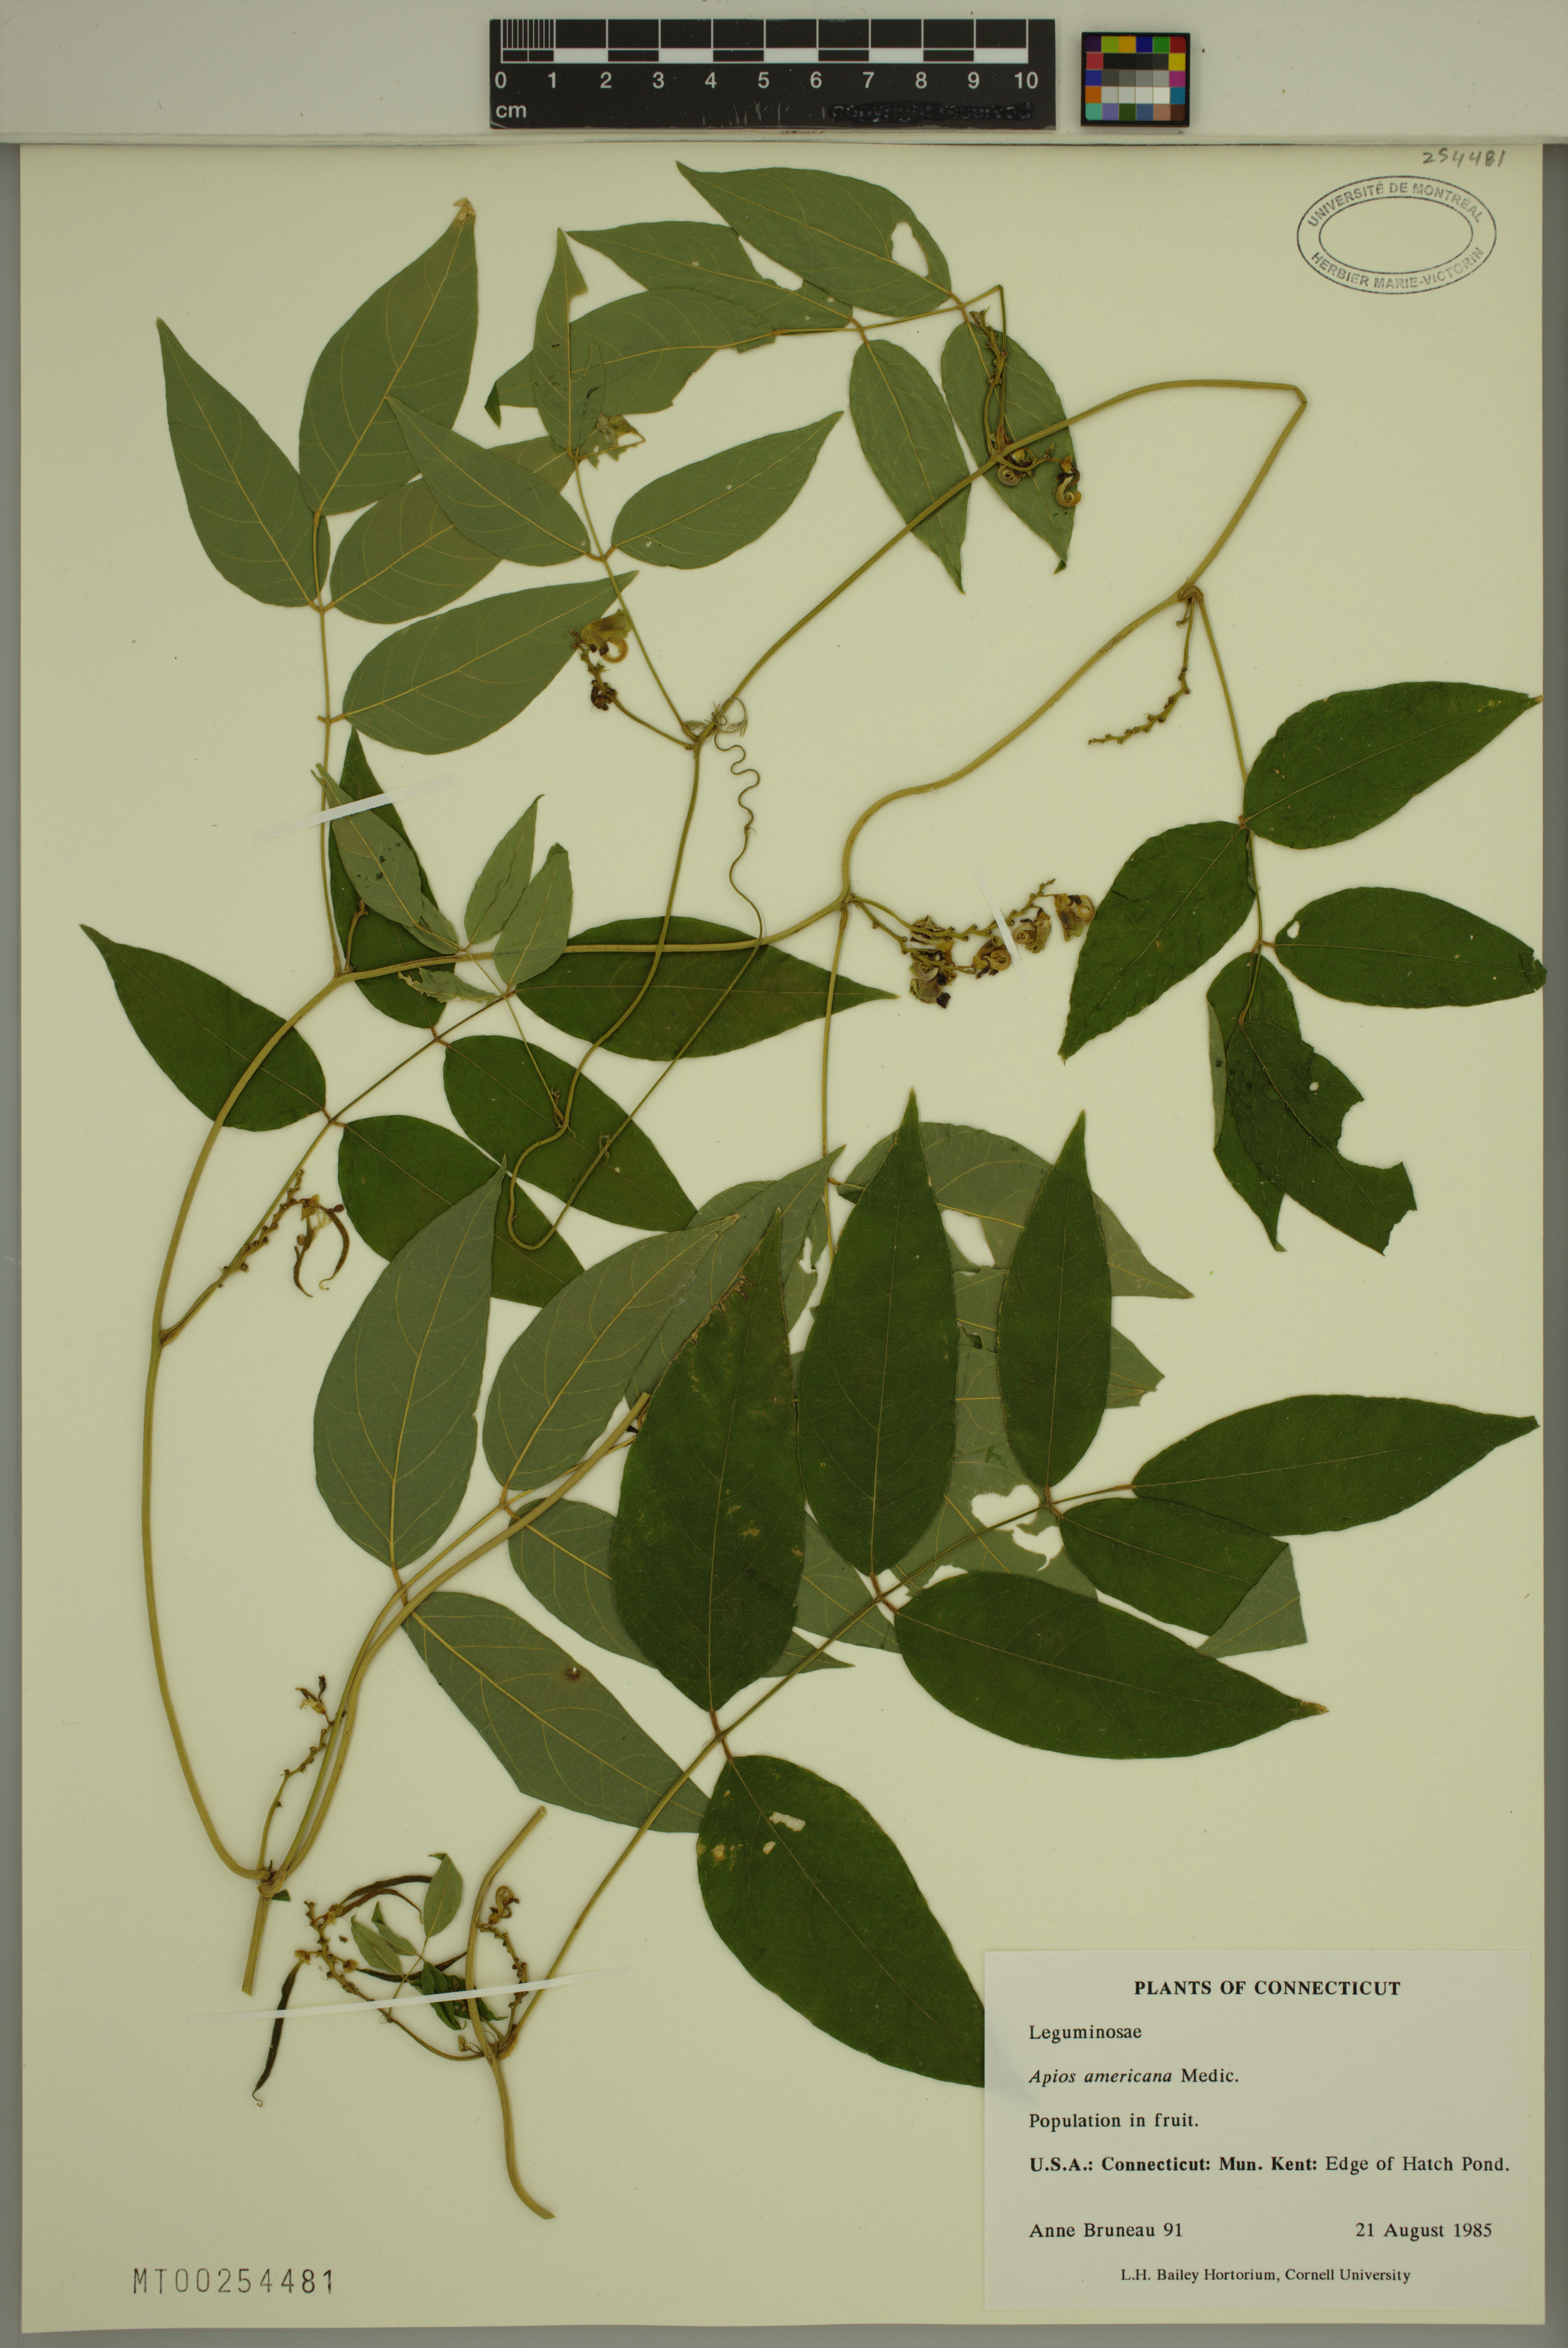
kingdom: Plantae
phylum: Tracheophyta
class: Magnoliopsida
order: Fabales
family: Fabaceae
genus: Apios
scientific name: Apios americana
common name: American potato-bean
